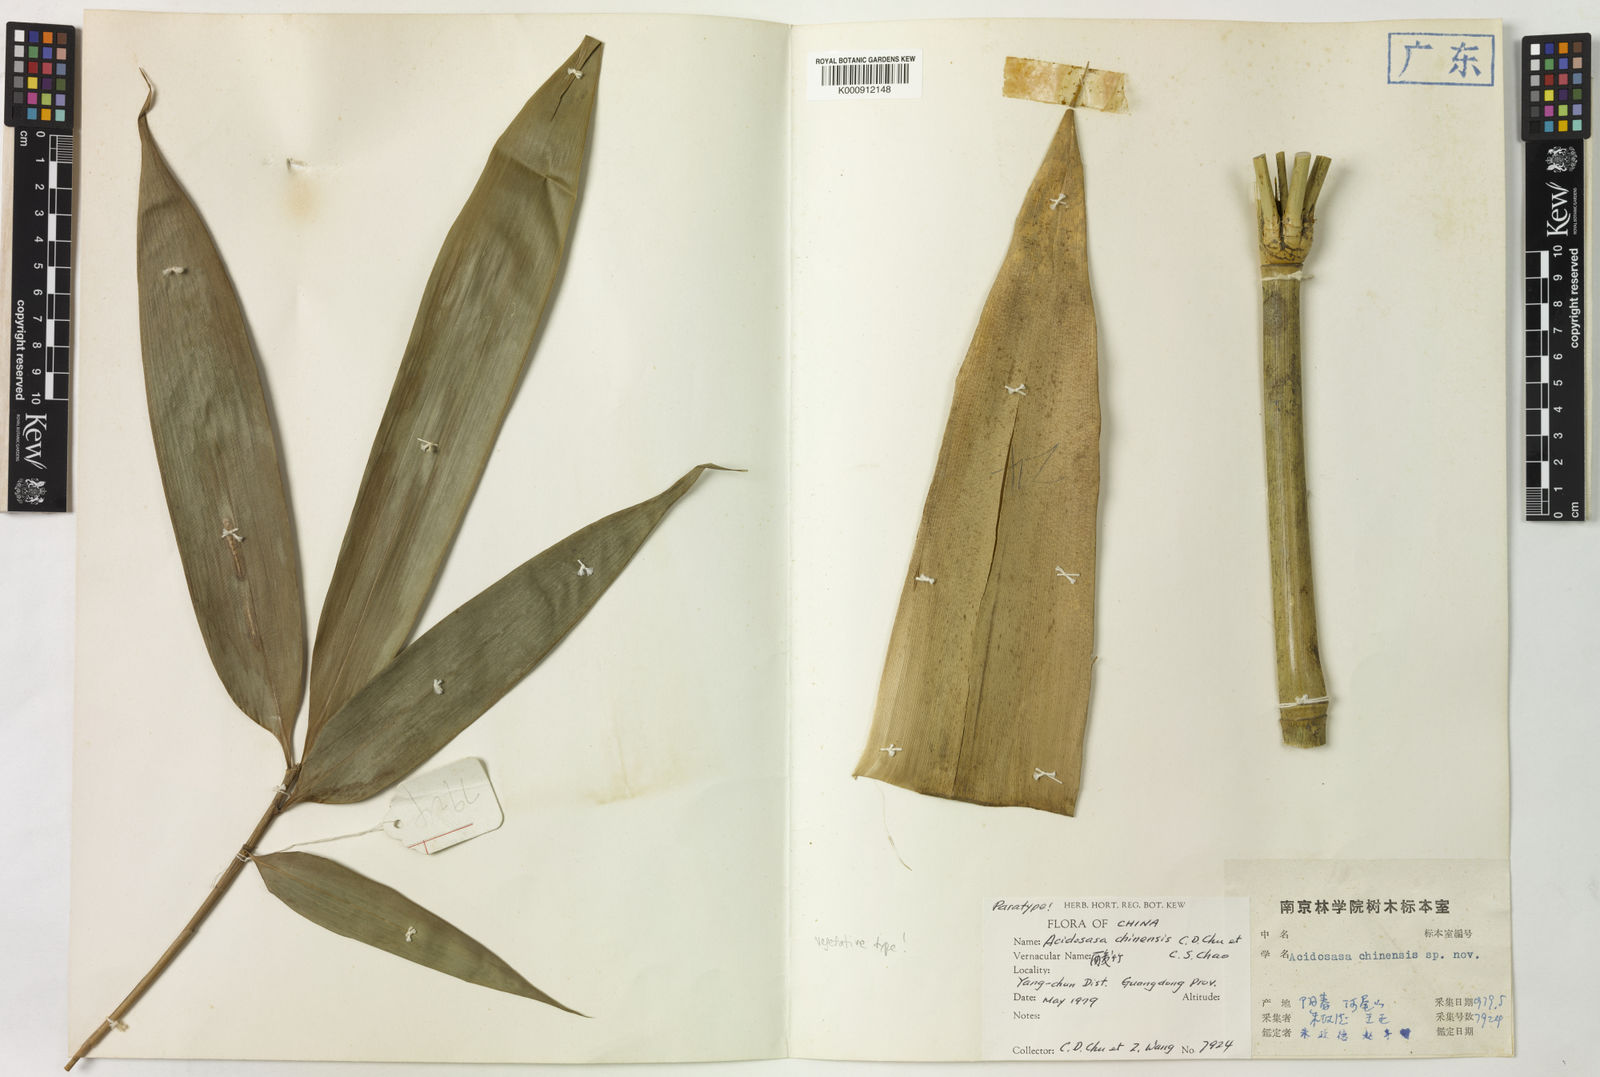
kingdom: Plantae
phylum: Tracheophyta
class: Liliopsida
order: Poales
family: Poaceae
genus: Acidosasa
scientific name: Acidosasa chinensis
